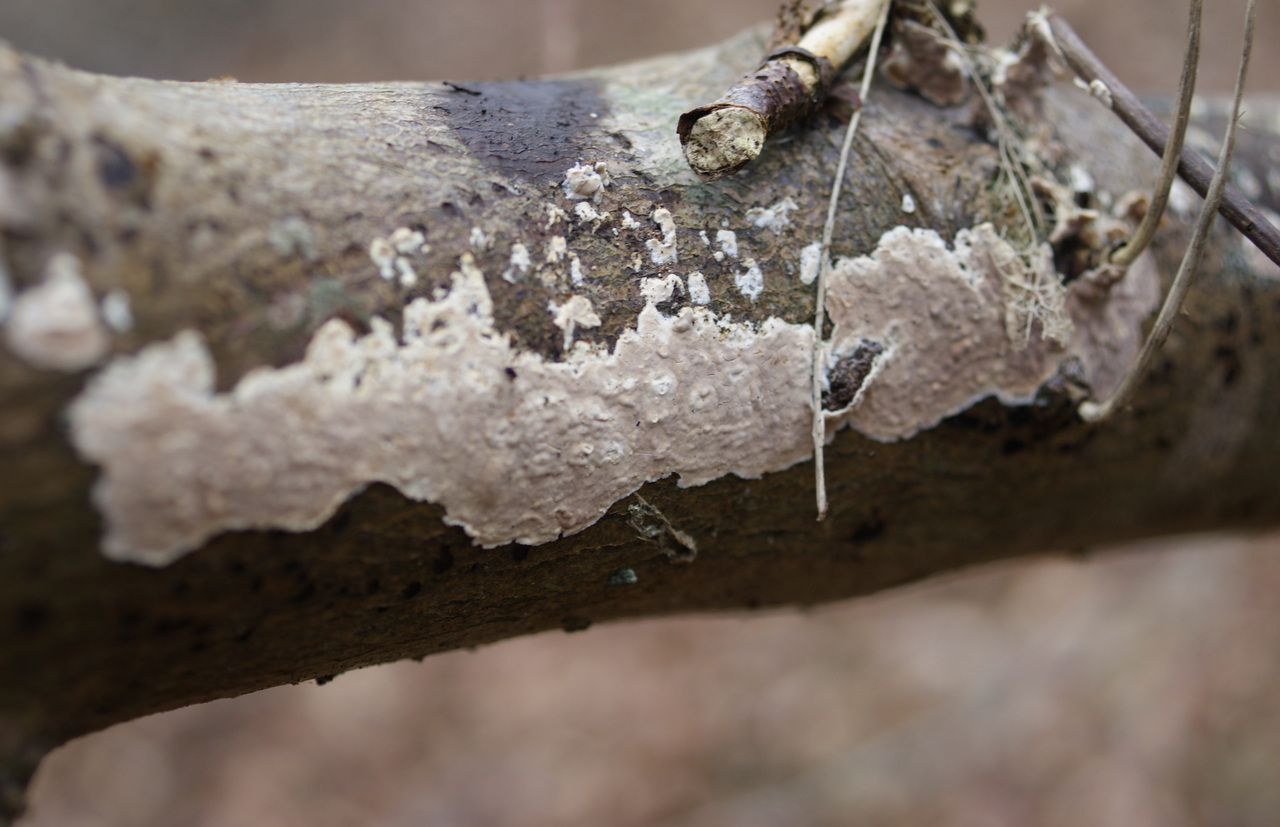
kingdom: Fungi
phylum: Basidiomycota
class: Agaricomycetes
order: Agaricales
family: Physalacriaceae
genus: Cylindrobasidium
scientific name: Cylindrobasidium evolvens
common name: sprækkehinde
